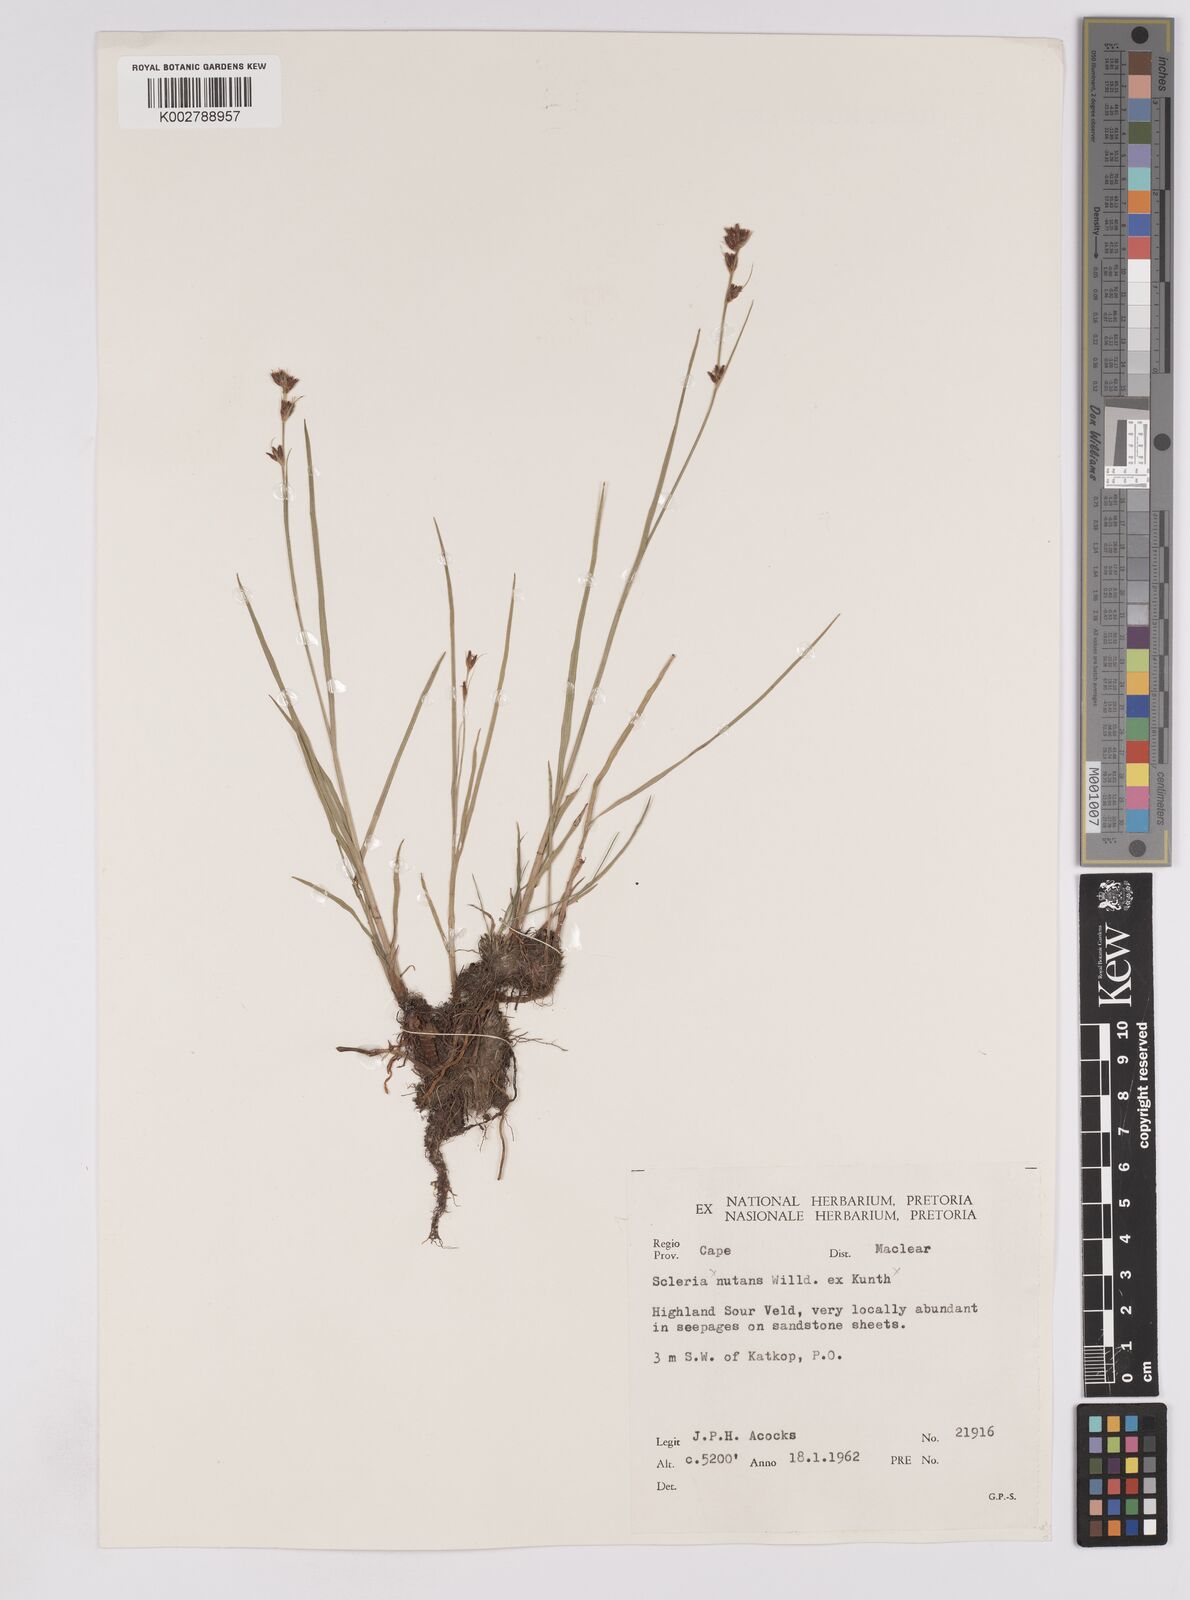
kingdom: Plantae
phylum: Tracheophyta
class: Liliopsida
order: Poales
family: Cyperaceae
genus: Scleria
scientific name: Scleria
